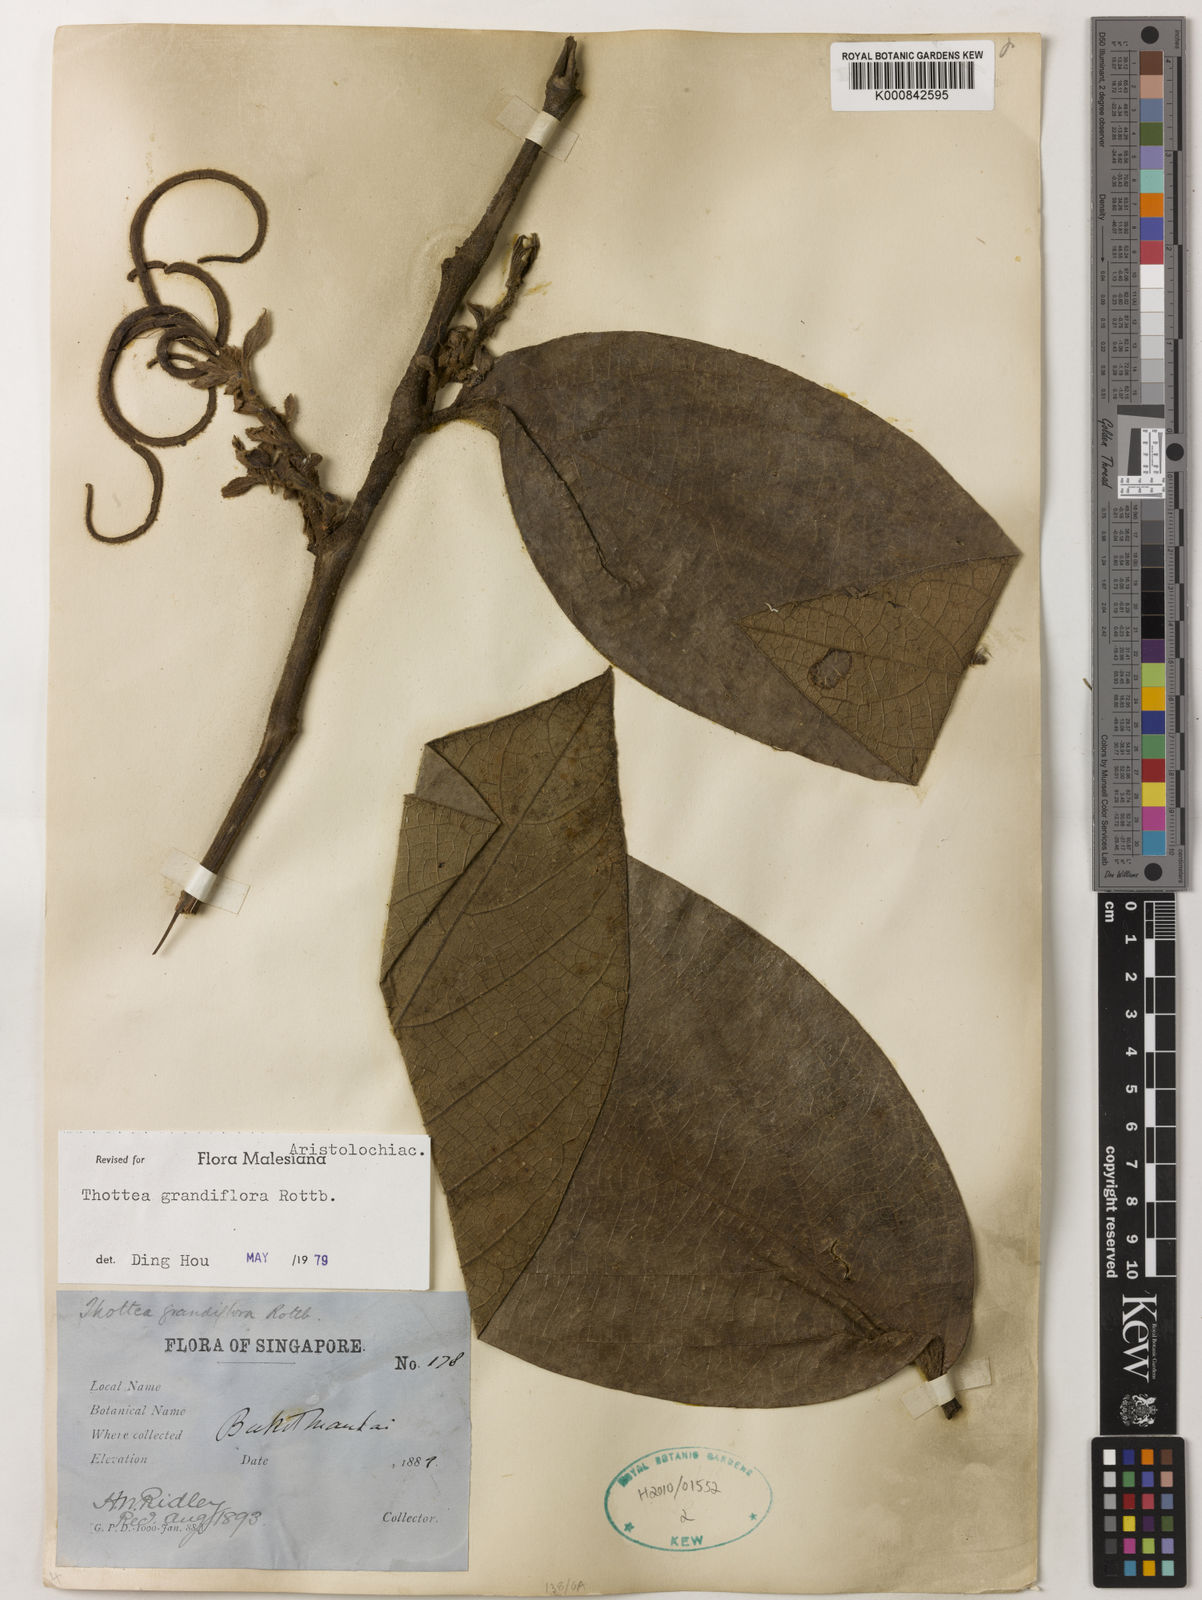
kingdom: Plantae
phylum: Tracheophyta
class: Magnoliopsida
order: Piperales
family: Aristolochiaceae
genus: Thottea
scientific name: Thottea grandiflora
